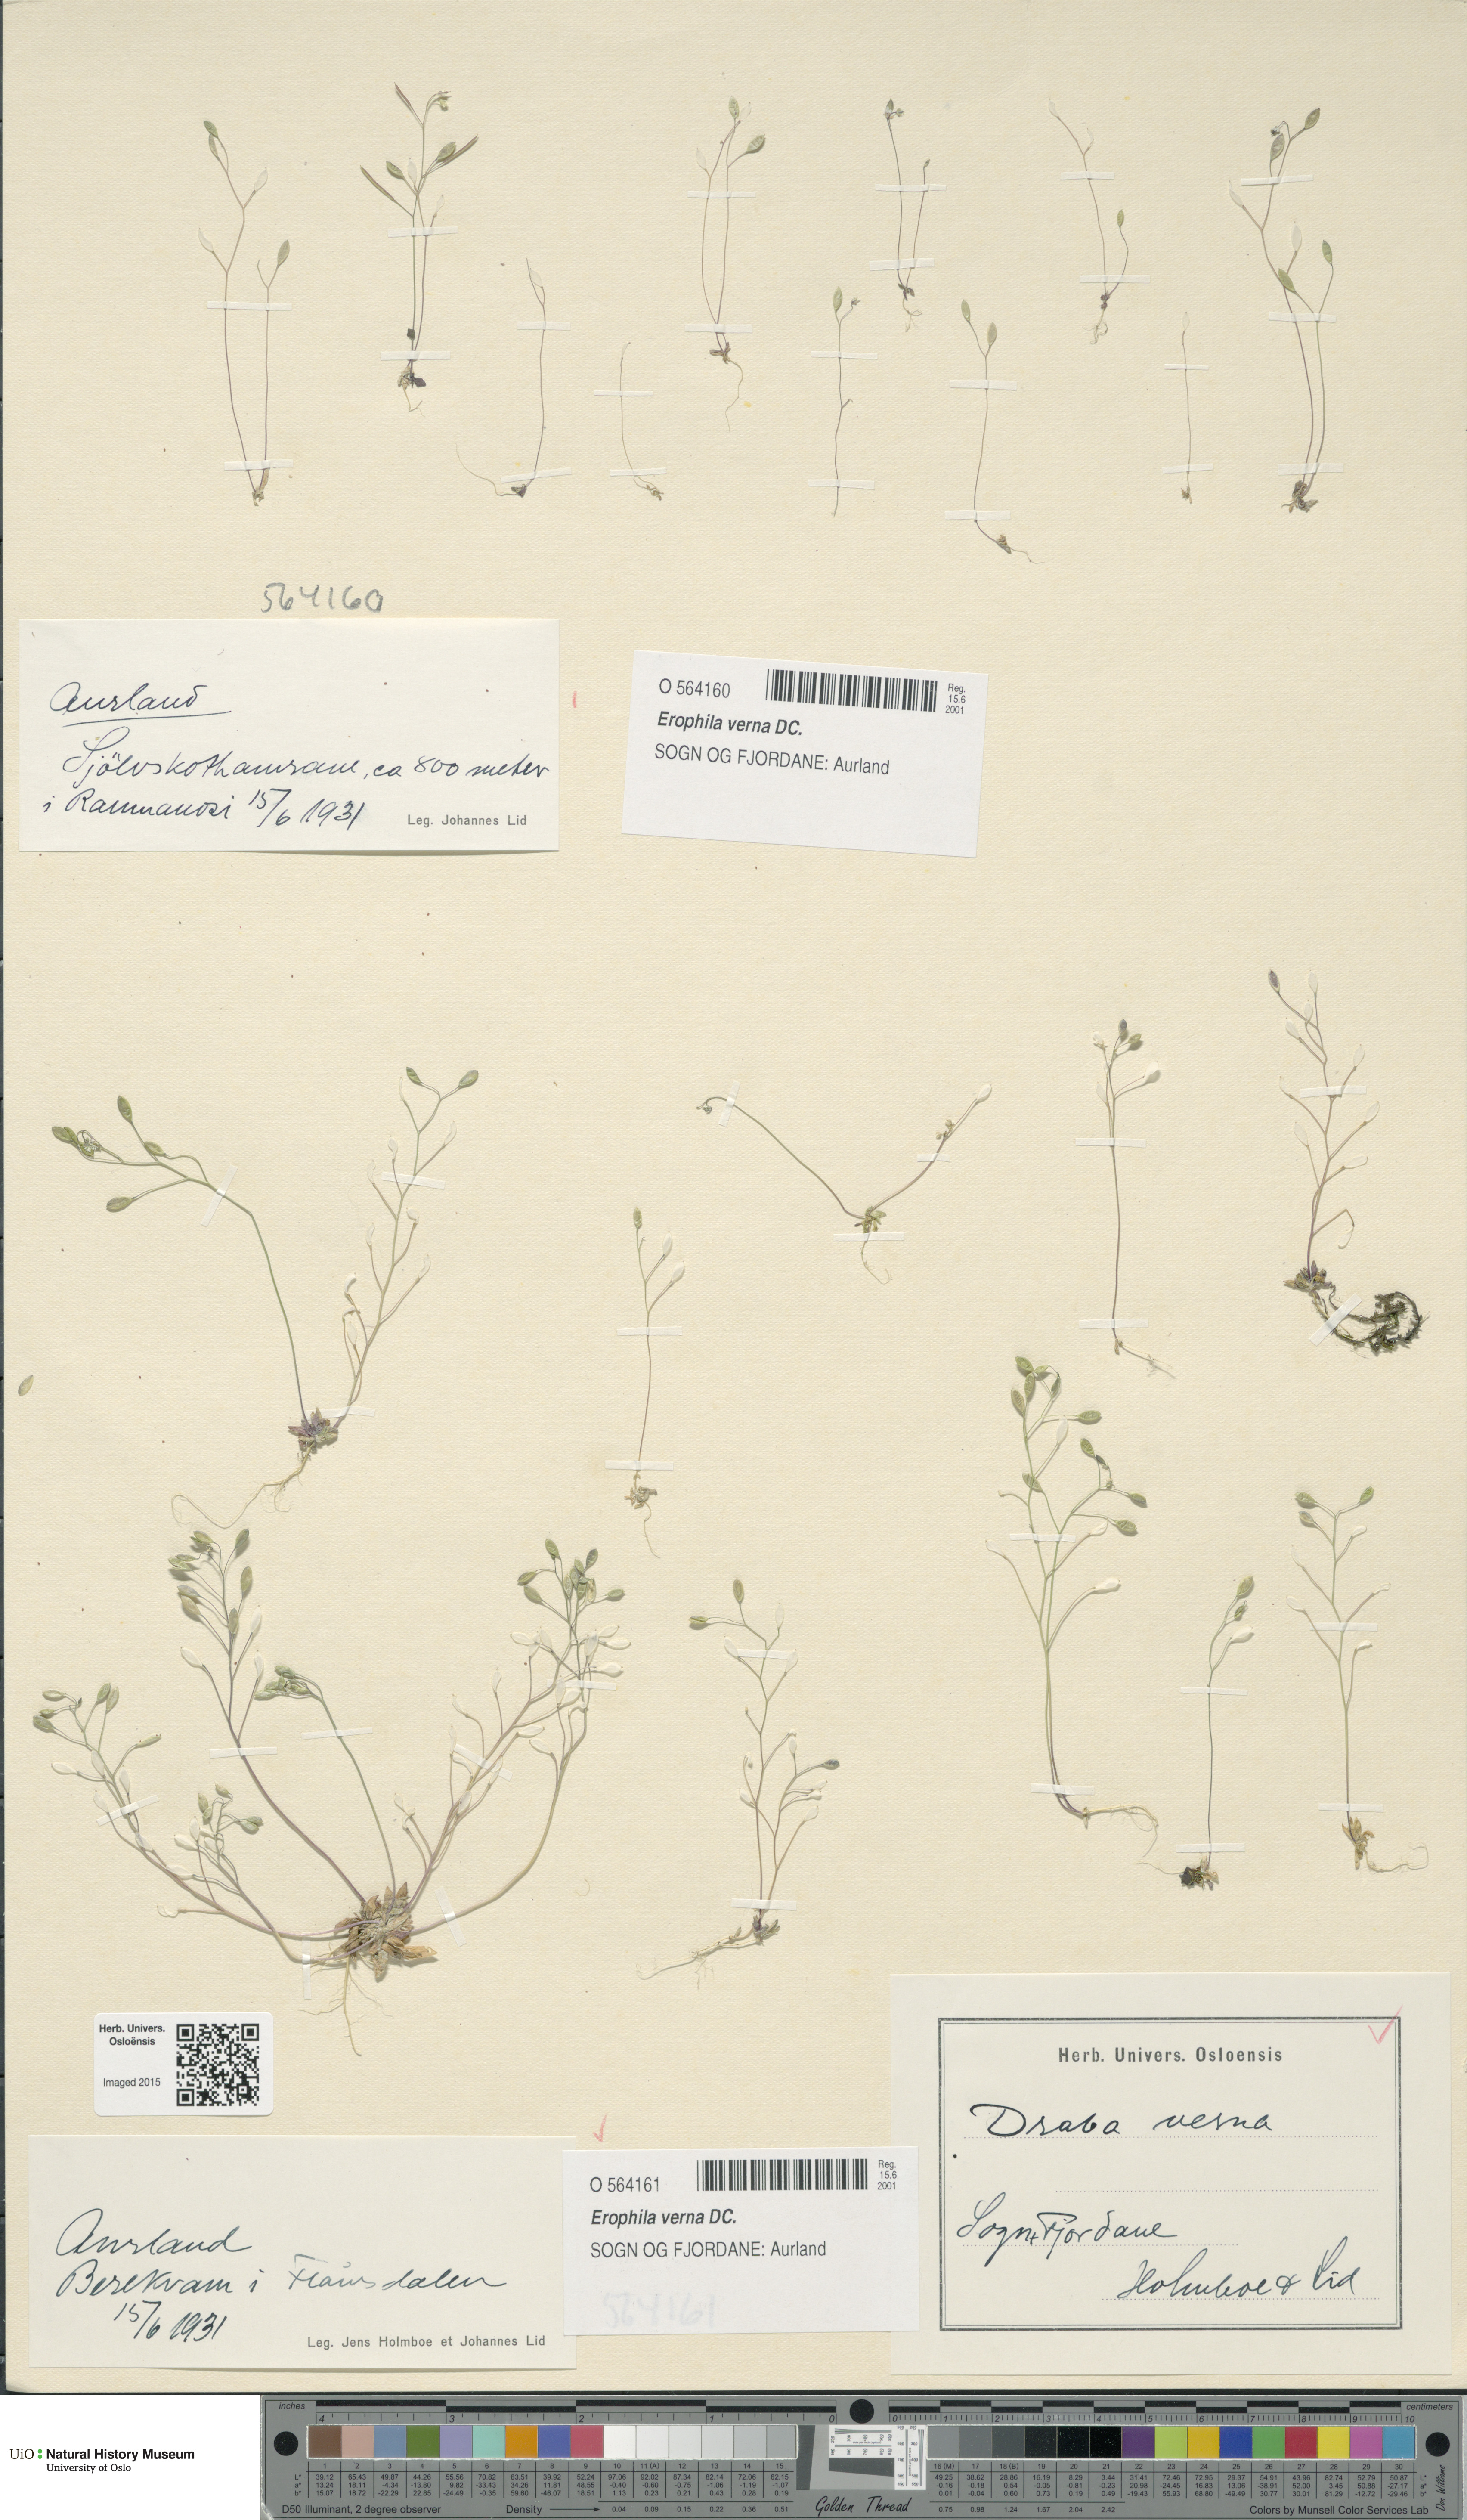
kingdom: Plantae
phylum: Tracheophyta
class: Magnoliopsida
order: Brassicales
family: Brassicaceae
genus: Draba
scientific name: Draba verna
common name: Spring draba
